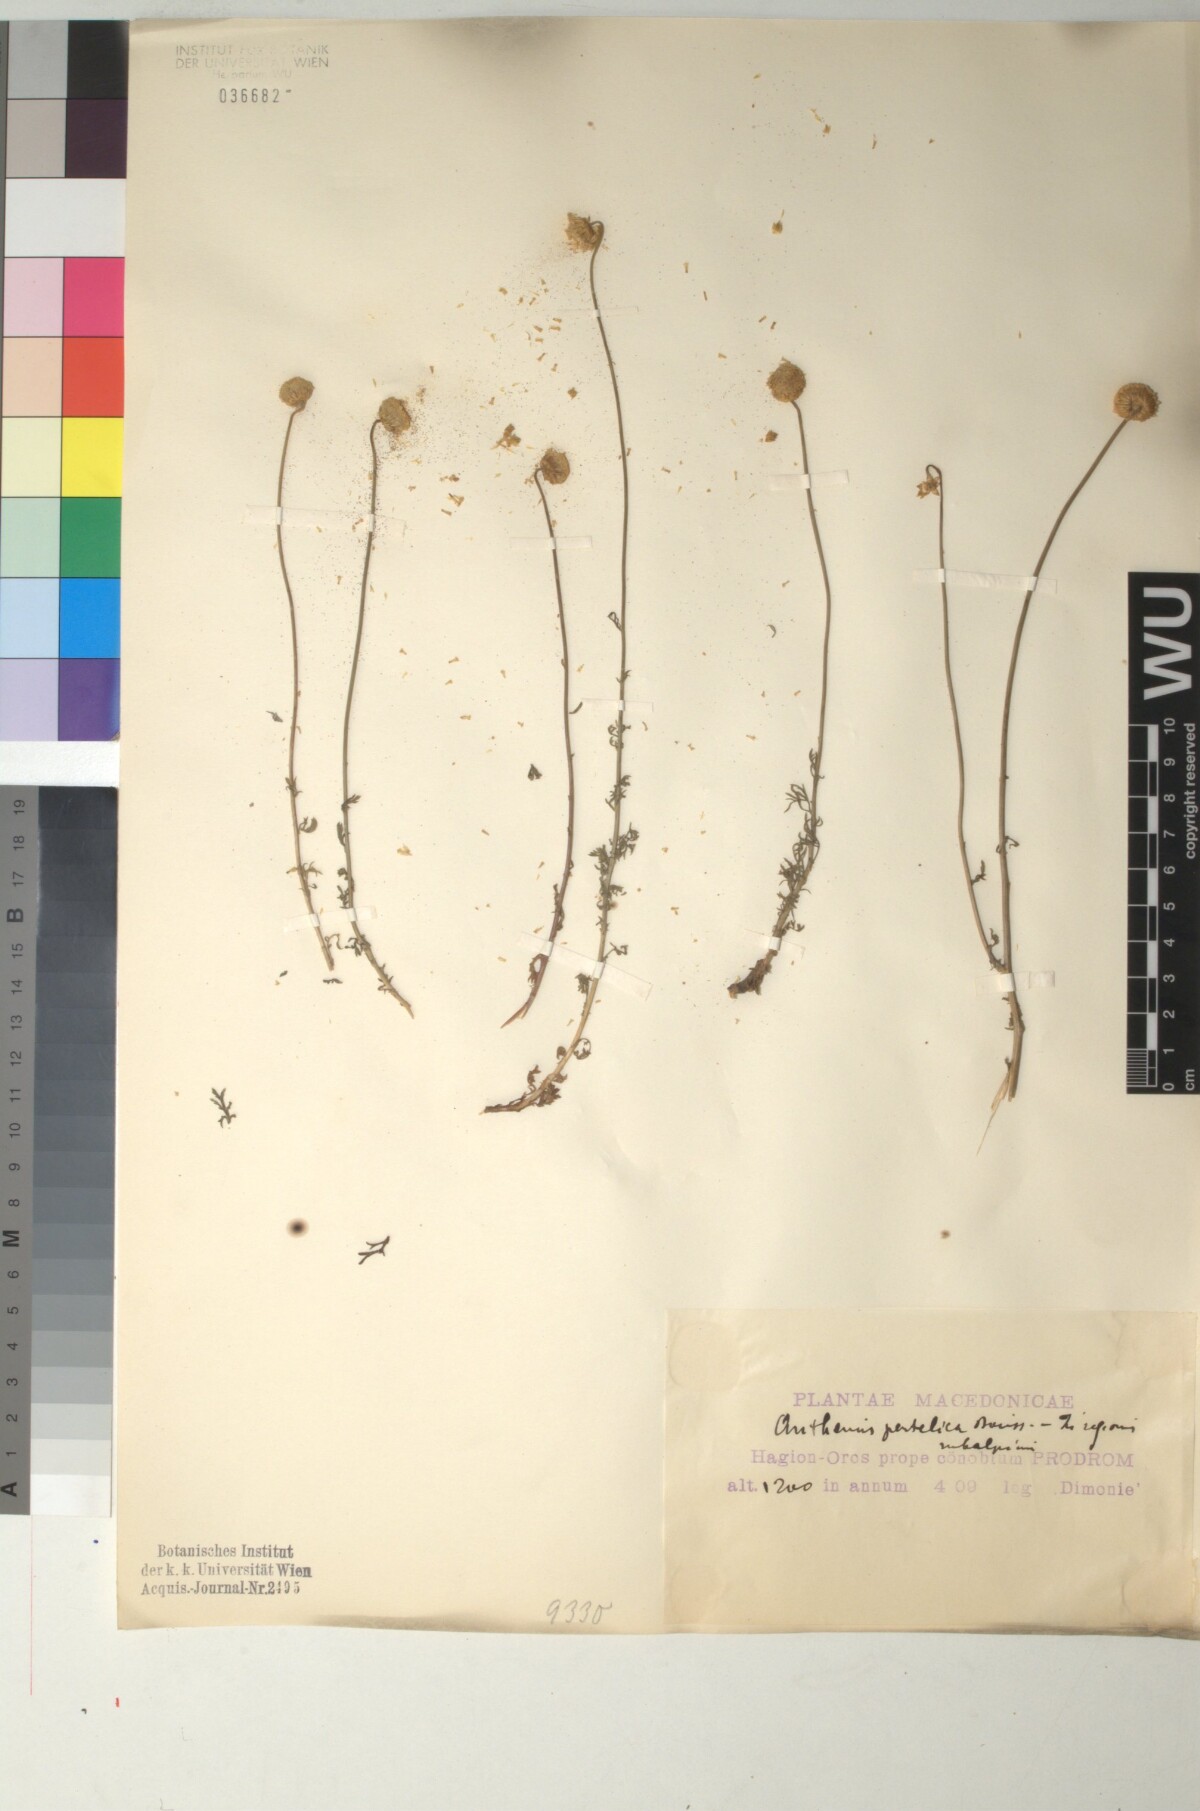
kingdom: Plantae
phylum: Tracheophyta
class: Magnoliopsida
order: Asterales
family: Asteraceae
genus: Anthemis
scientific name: Anthemis sibthorpii
